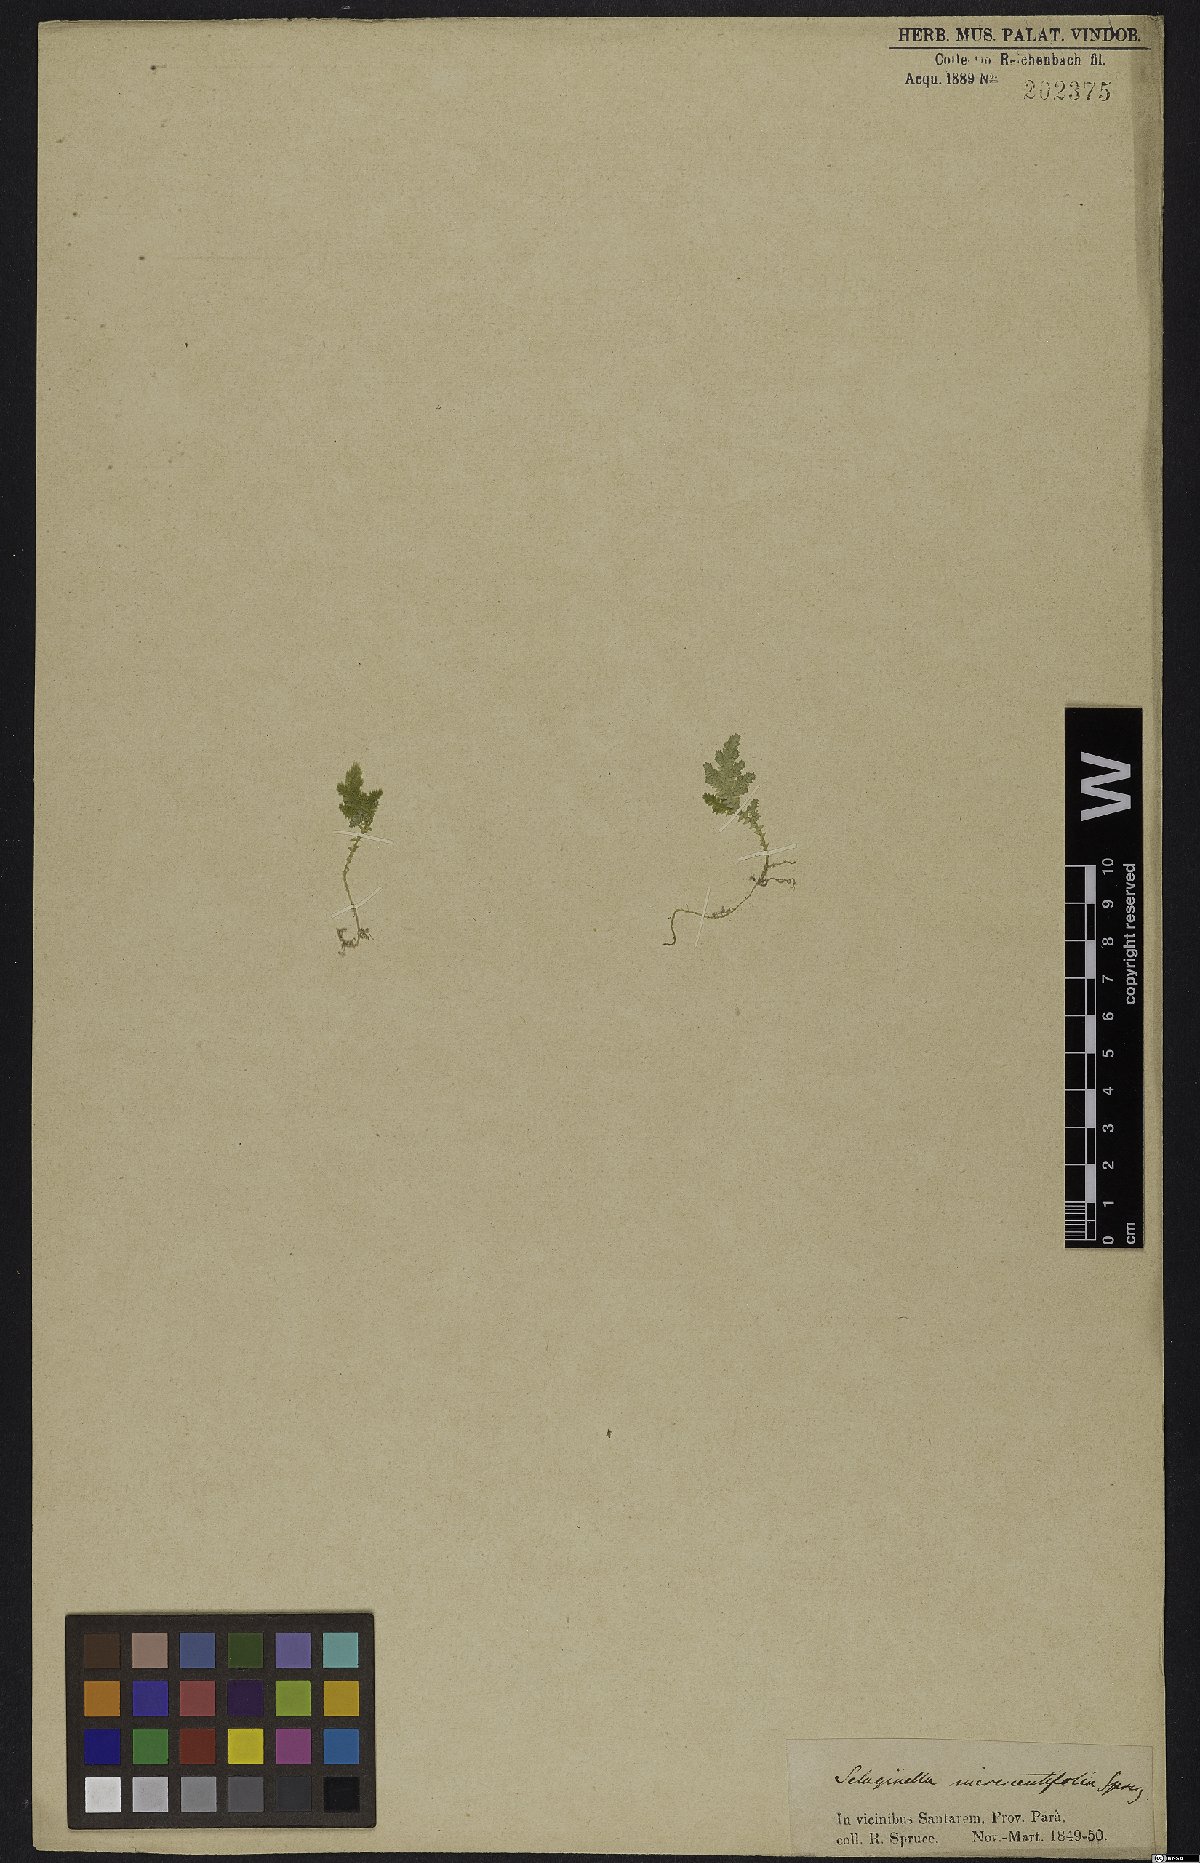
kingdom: Plantae
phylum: Tracheophyta
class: Lycopodiopsida
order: Selaginellales
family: Selaginellaceae
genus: Selaginella
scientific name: Selaginella radiata
